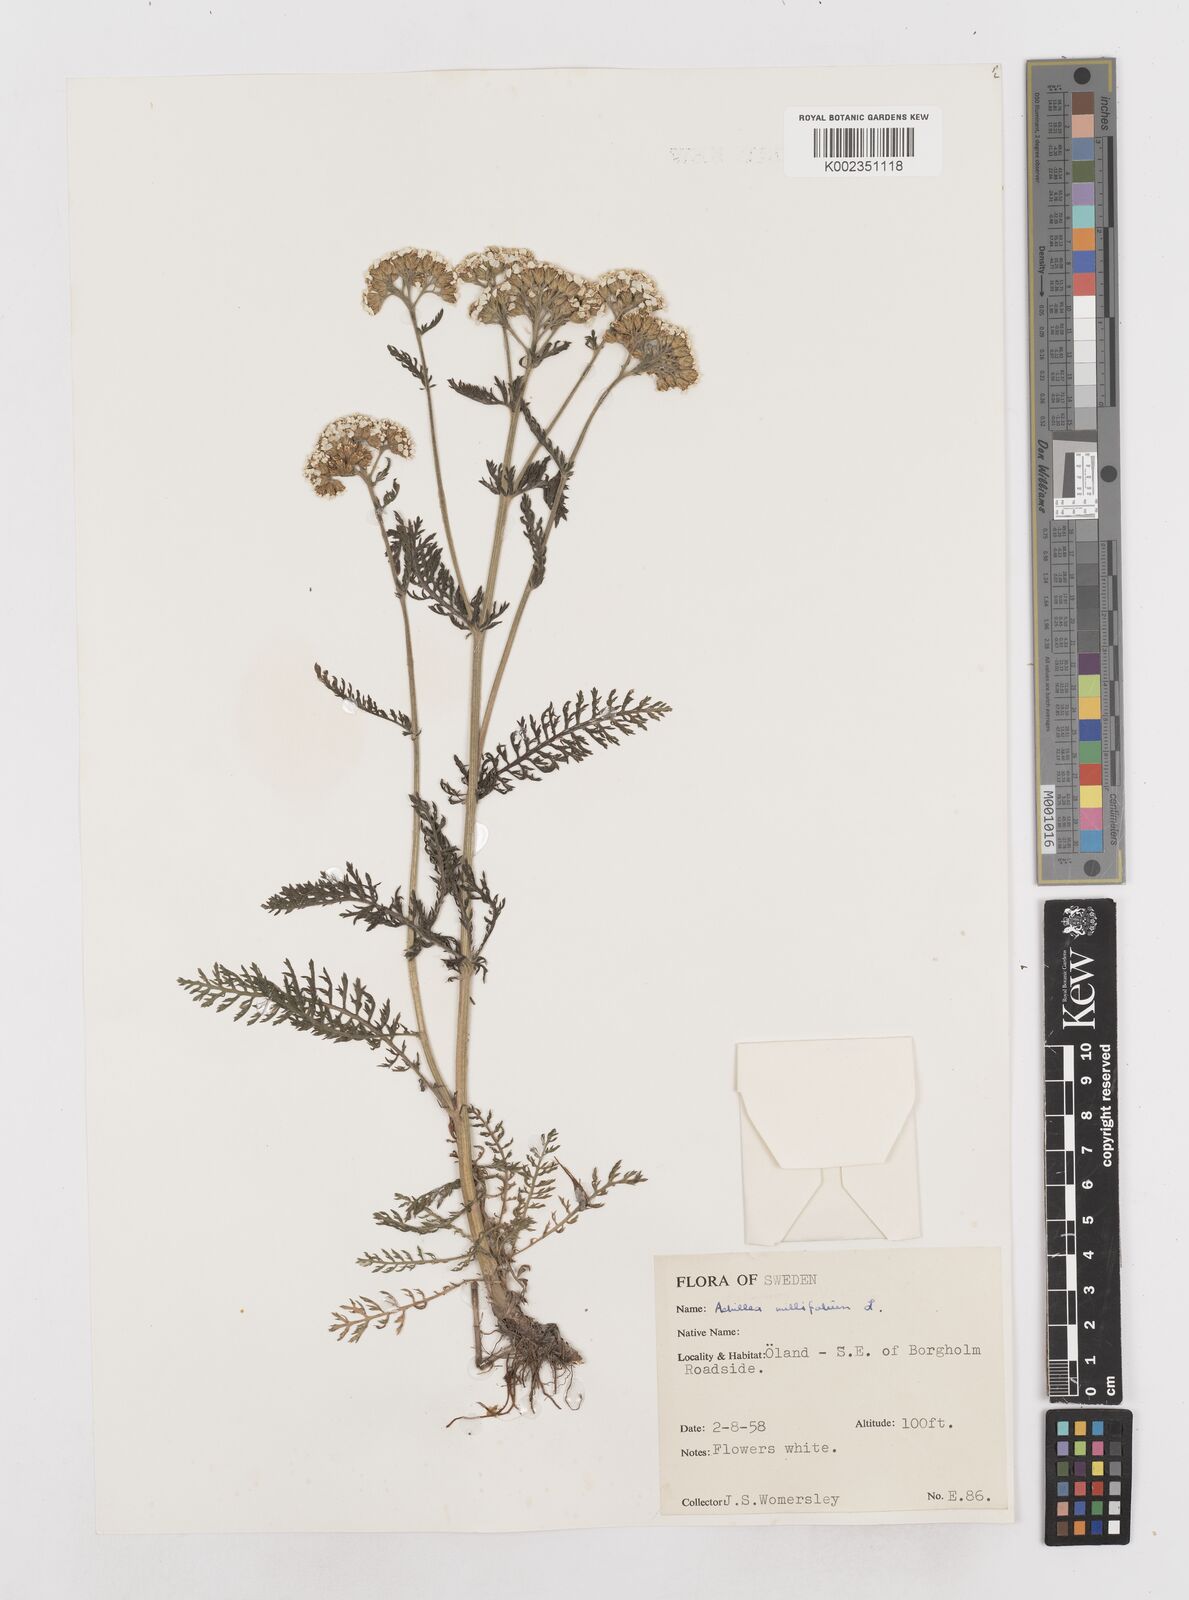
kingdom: Plantae
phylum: Tracheophyta
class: Magnoliopsida
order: Asterales
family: Asteraceae
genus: Achillea
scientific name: Achillea millefolium
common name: Yarrow
